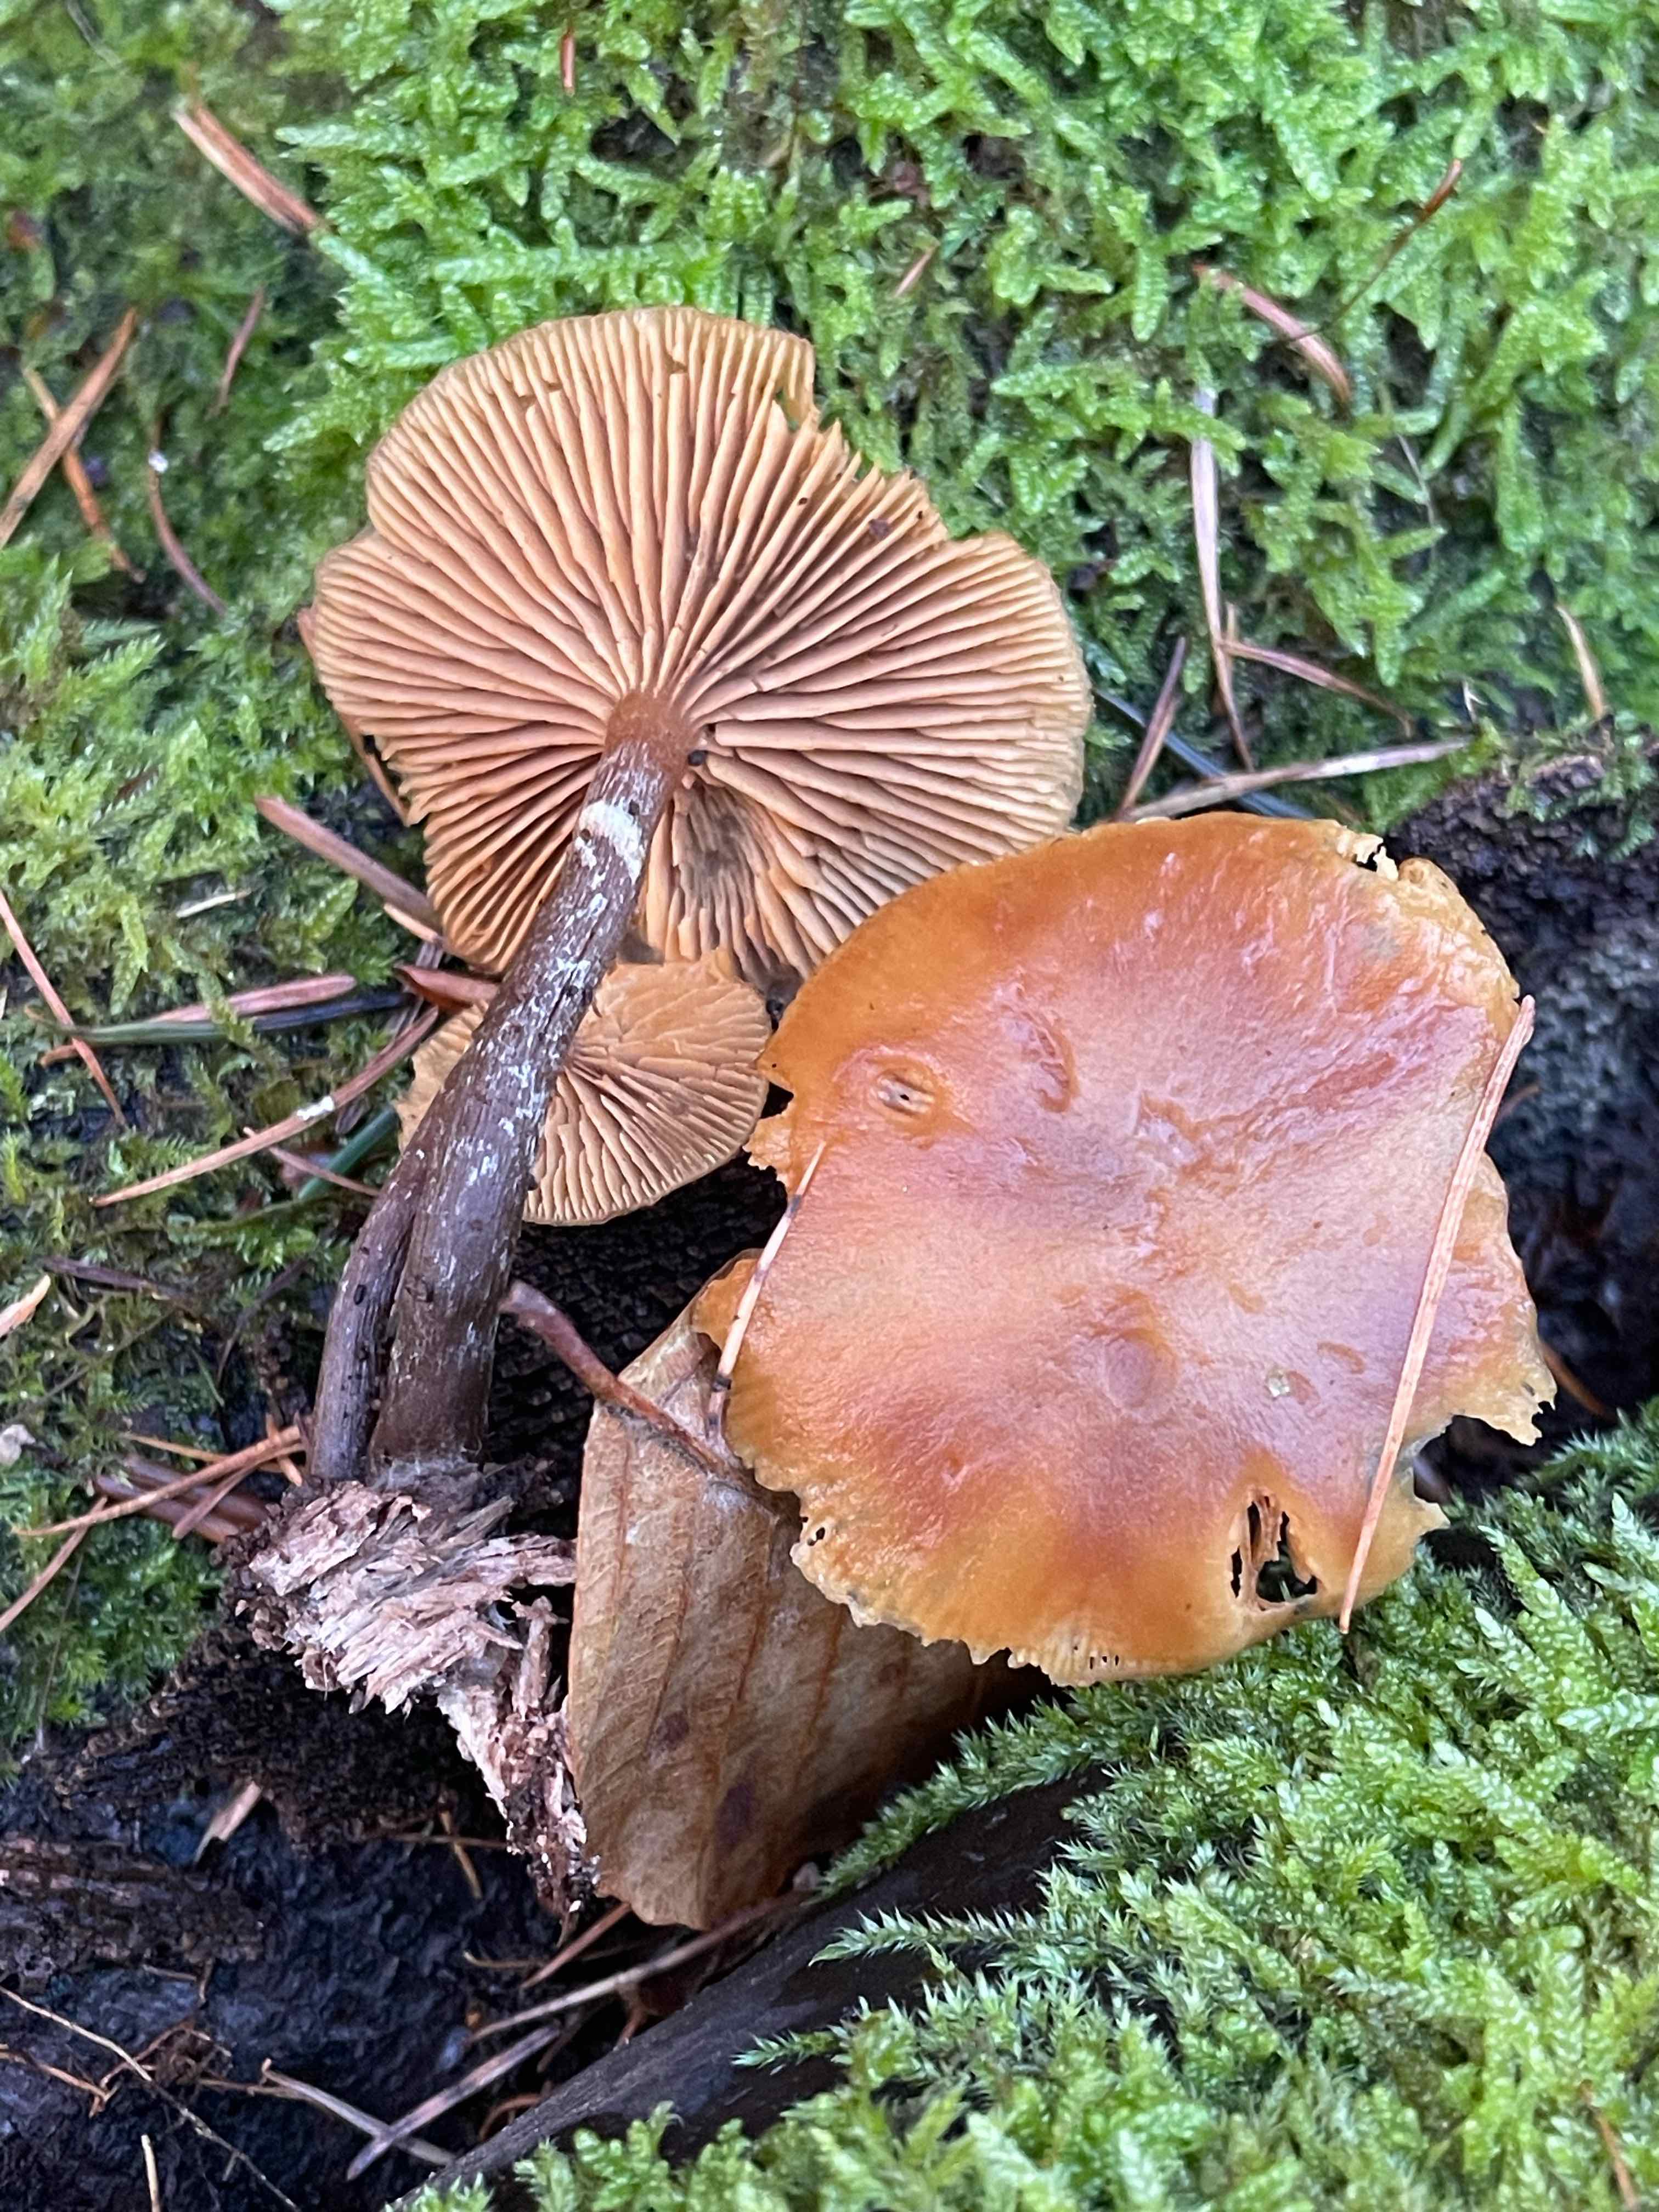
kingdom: Fungi
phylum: Basidiomycota
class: Agaricomycetes
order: Agaricales
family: Hymenogastraceae
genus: Galerina
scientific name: Galerina marginata
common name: randbæltet hjelmhat
